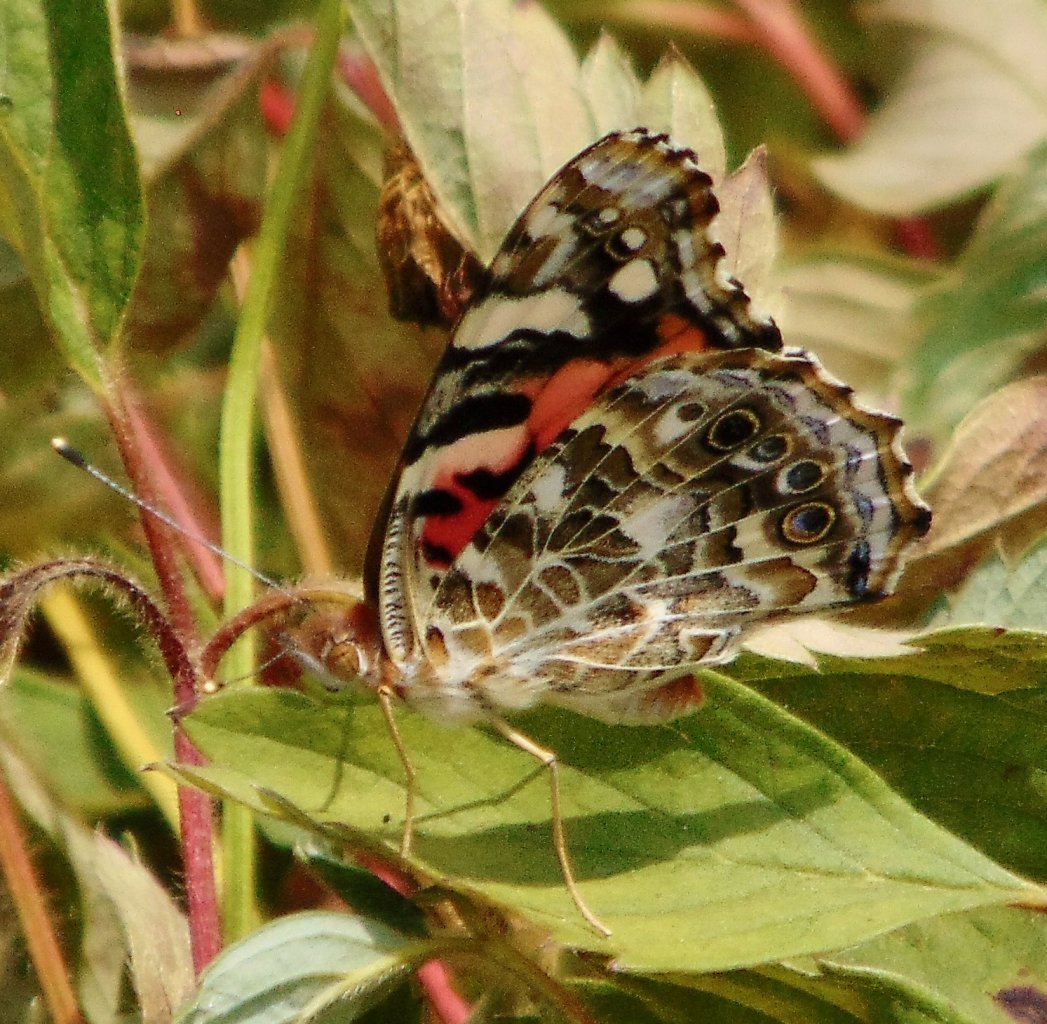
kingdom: Animalia
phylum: Arthropoda
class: Insecta
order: Lepidoptera
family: Nymphalidae
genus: Vanessa
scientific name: Vanessa cardui
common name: Painted Lady
